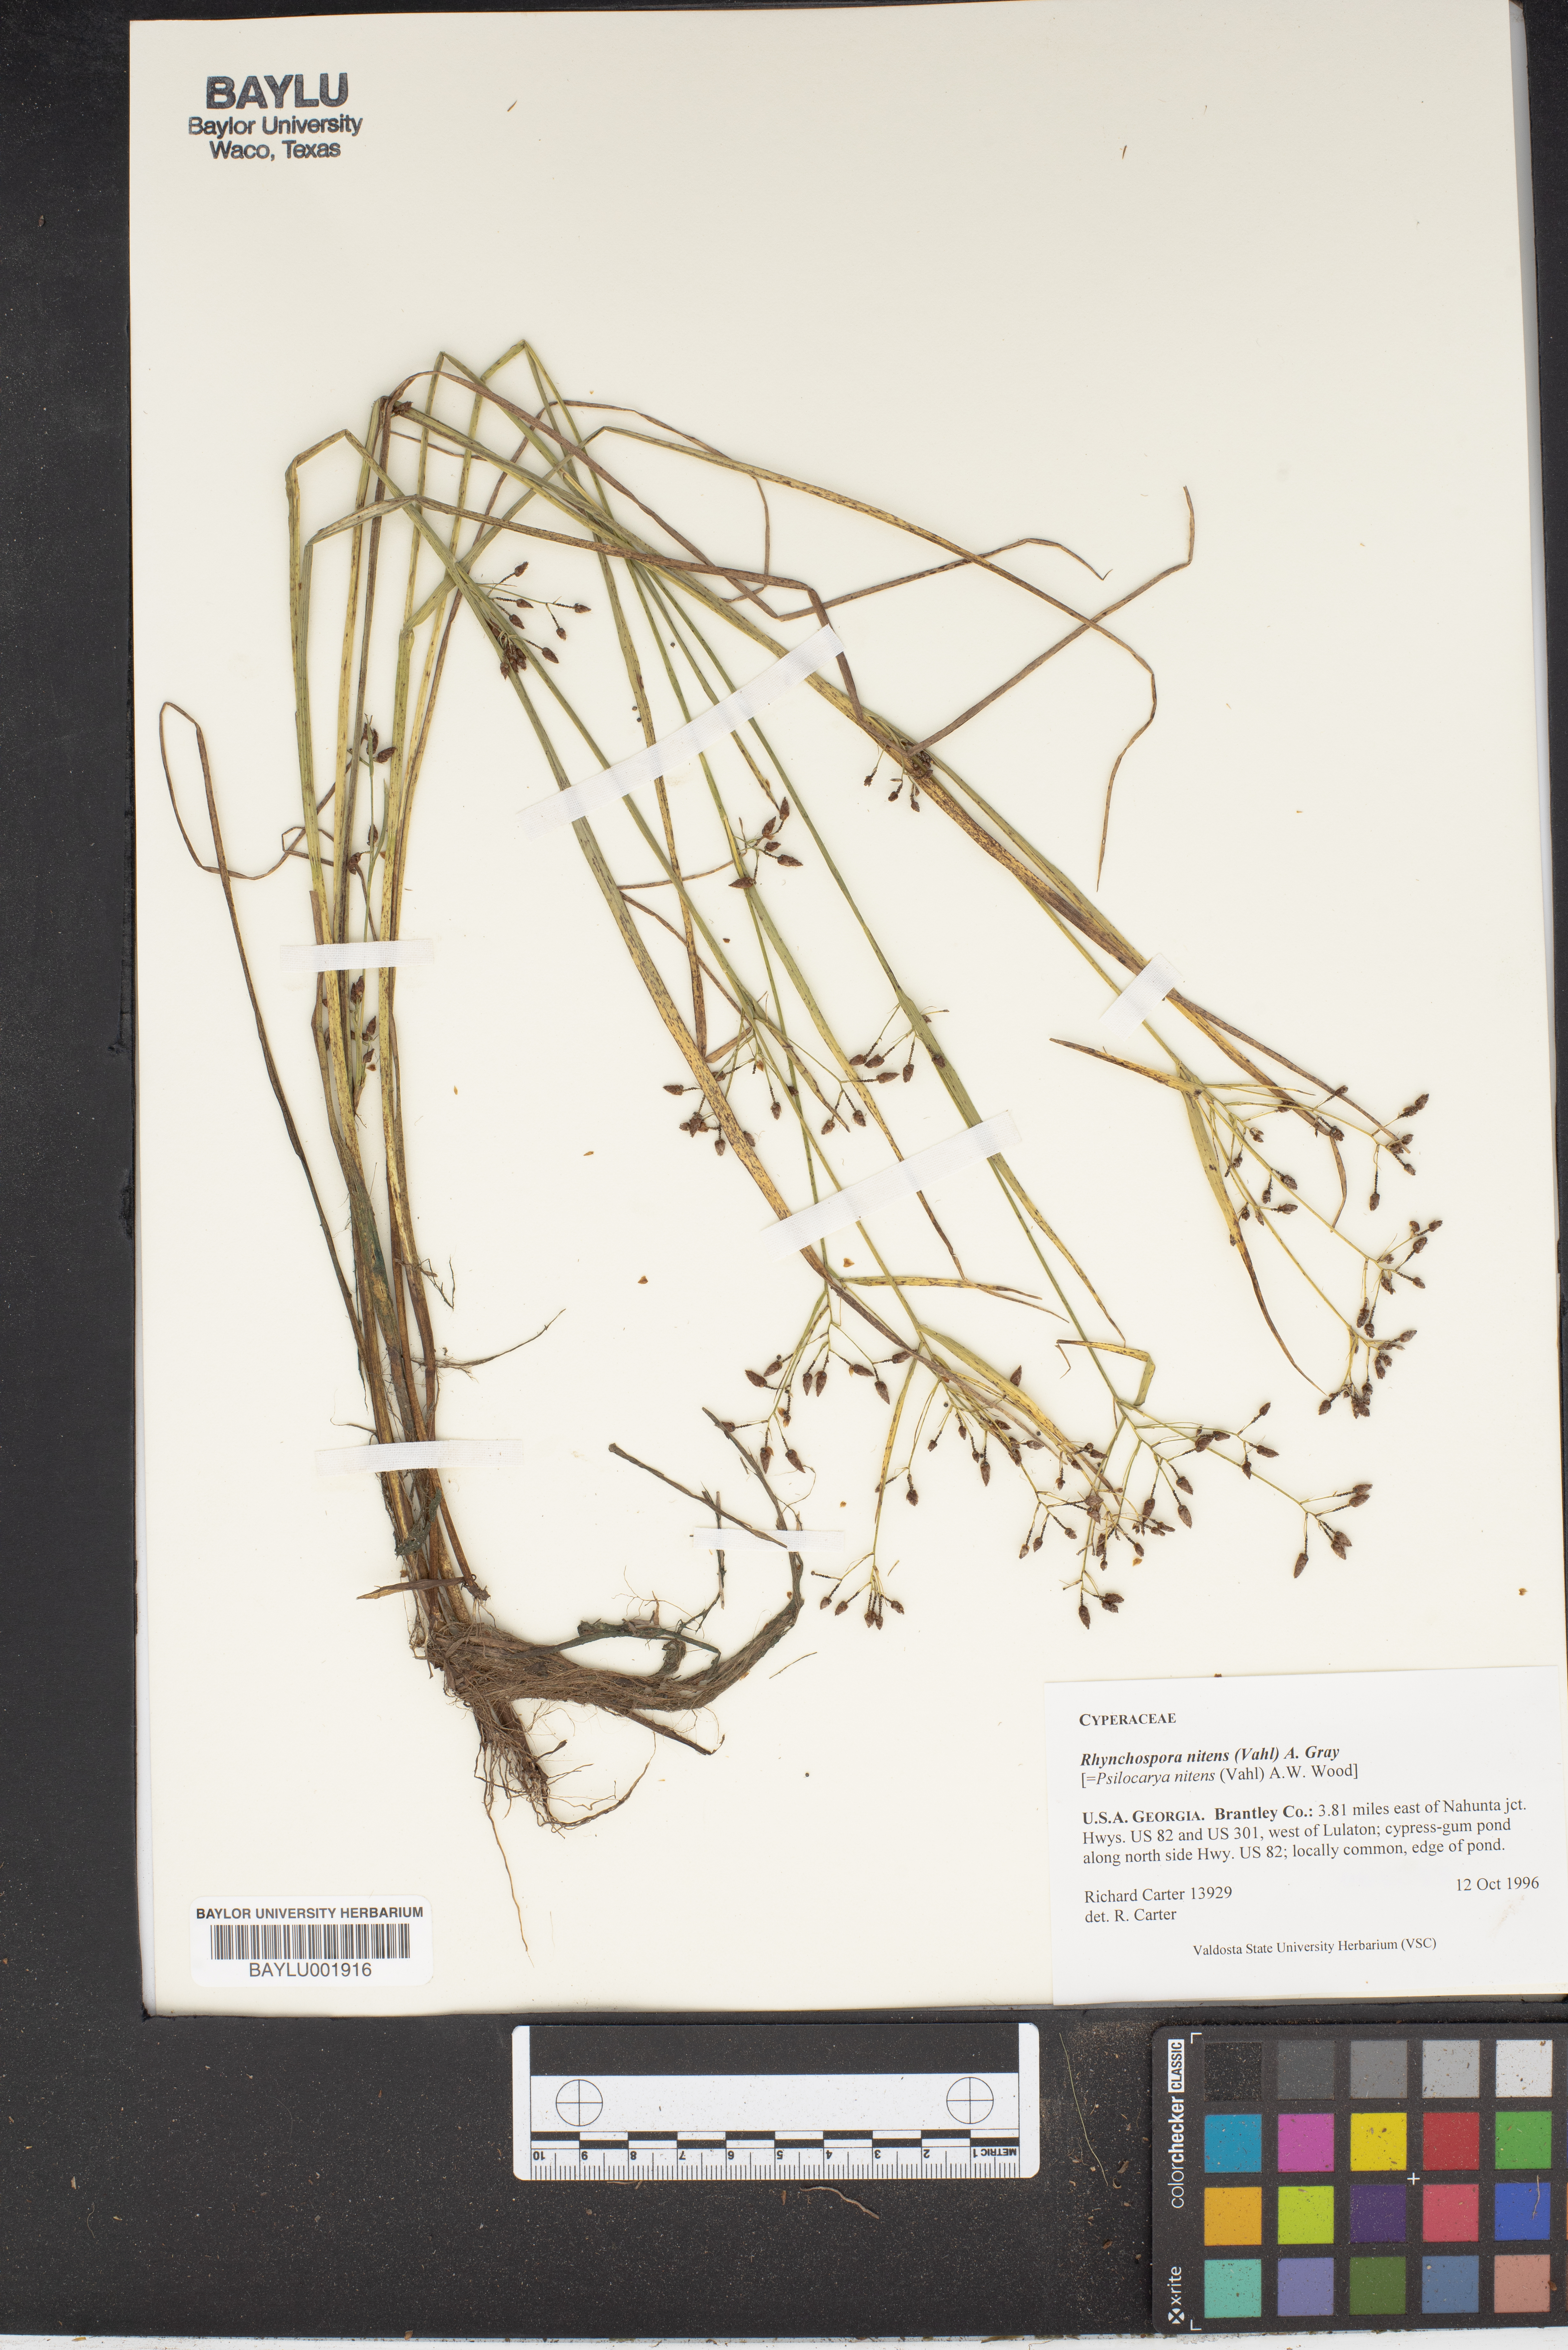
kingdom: Plantae
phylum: Tracheophyta
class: Liliopsida
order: Poales
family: Cyperaceae
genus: Rhynchospora
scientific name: Rhynchospora nitens
